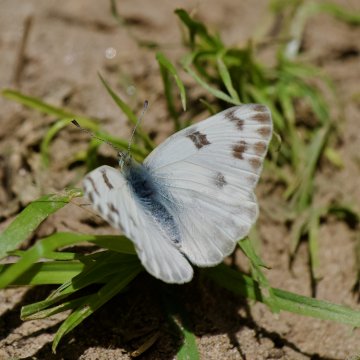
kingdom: Animalia
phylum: Arthropoda
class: Insecta
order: Lepidoptera
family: Pieridae
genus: Pontia
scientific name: Pontia
